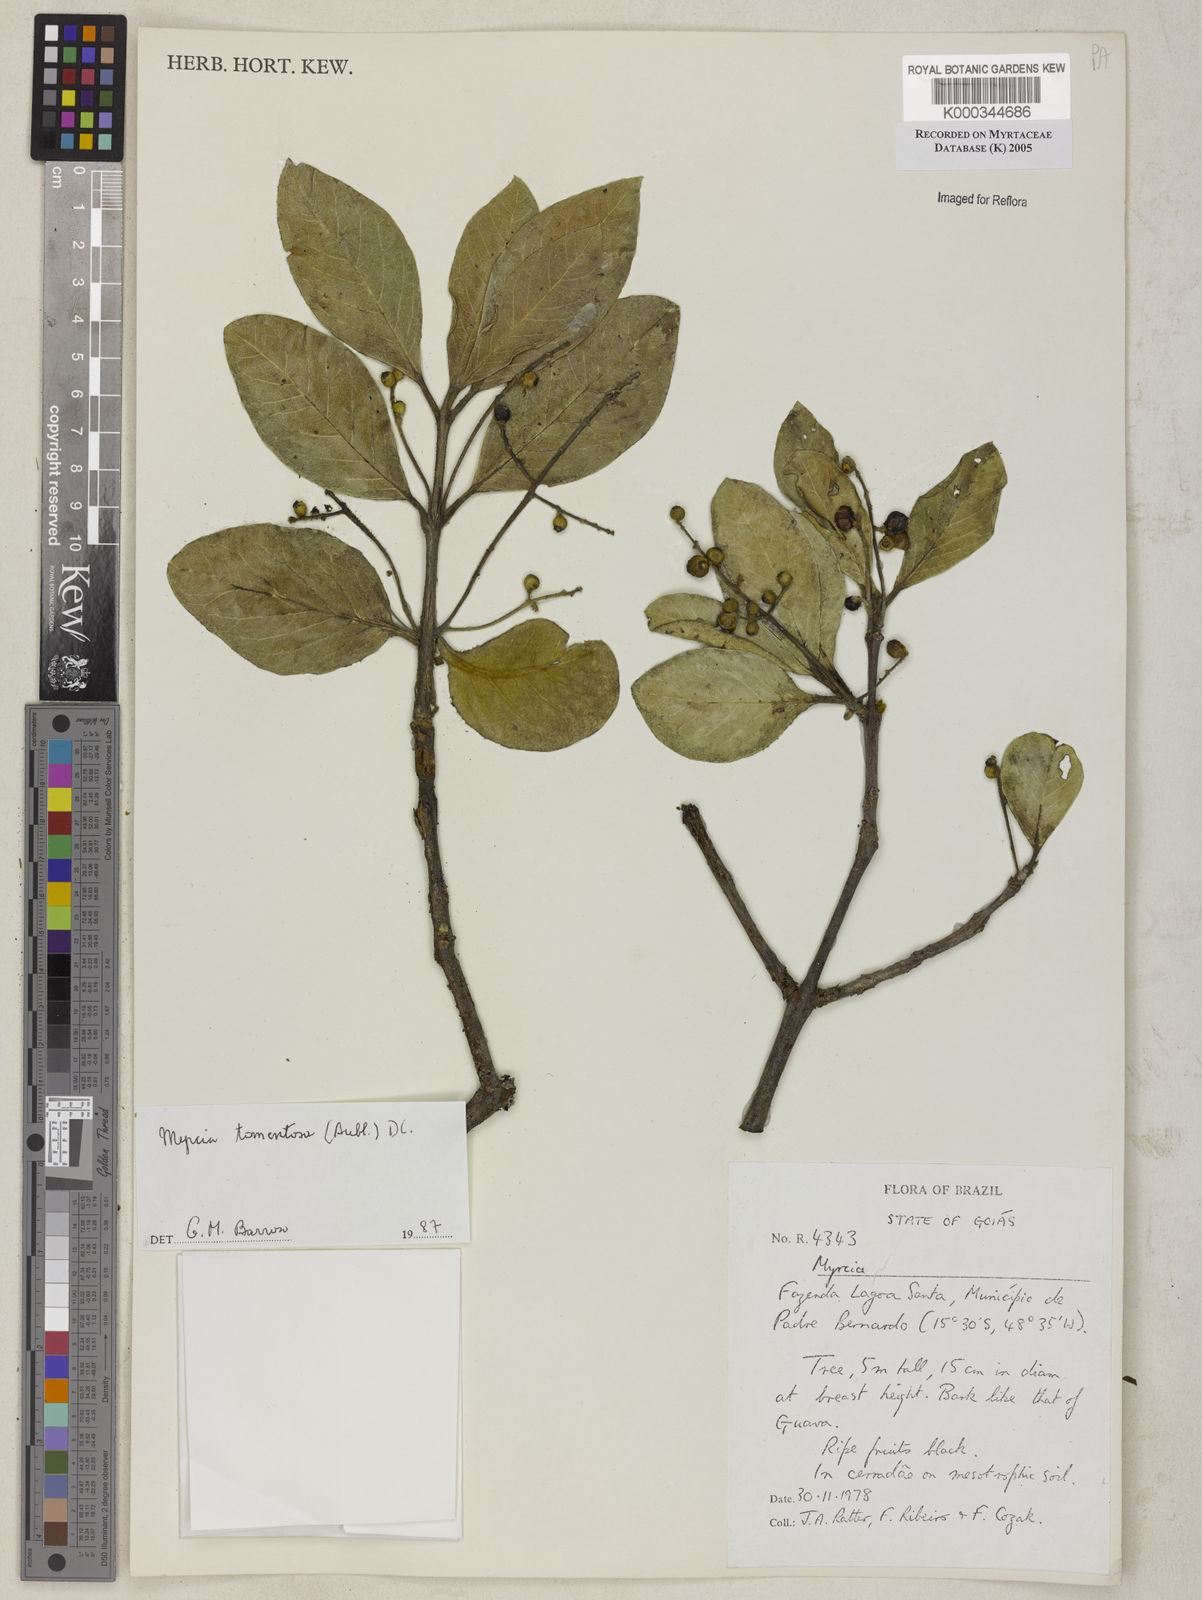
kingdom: Plantae
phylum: Tracheophyta
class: Magnoliopsida
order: Myrtales
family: Myrtaceae
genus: Myrcia
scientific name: Myrcia tomentosa
